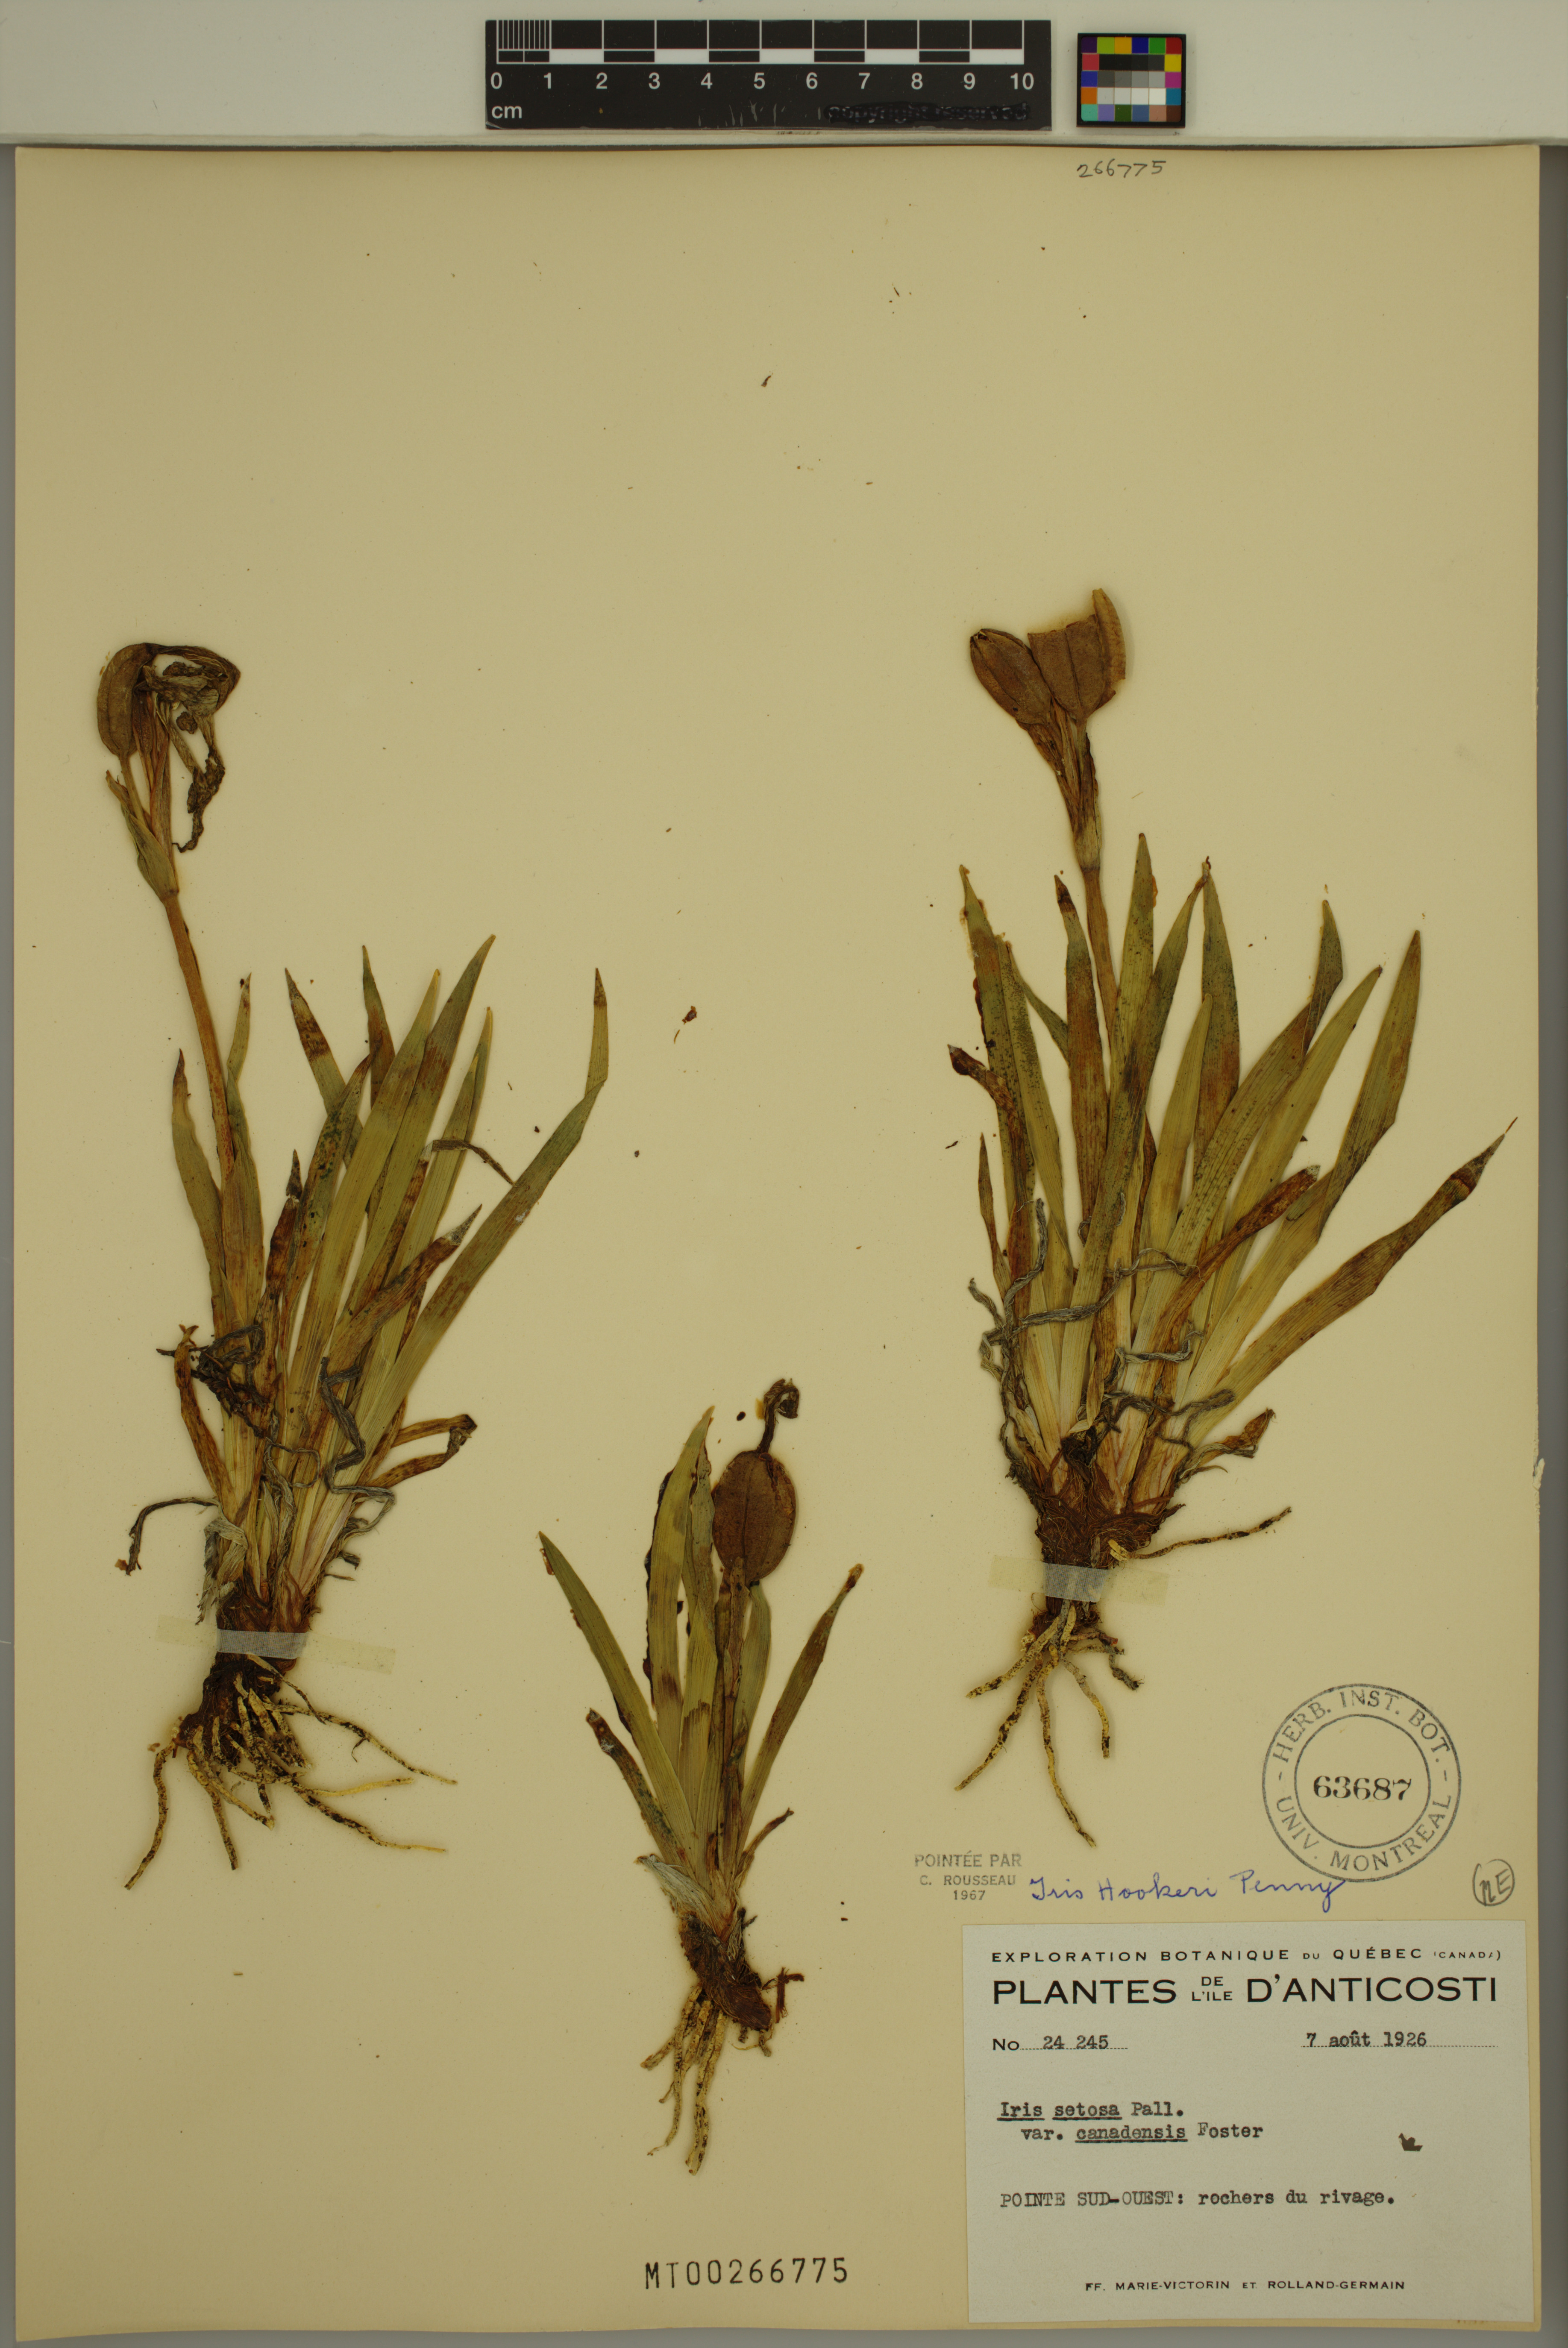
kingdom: Plantae
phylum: Tracheophyta
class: Liliopsida
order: Asparagales
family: Iridaceae
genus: Iris
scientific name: Iris hookeri
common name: Canada beach-head iris
